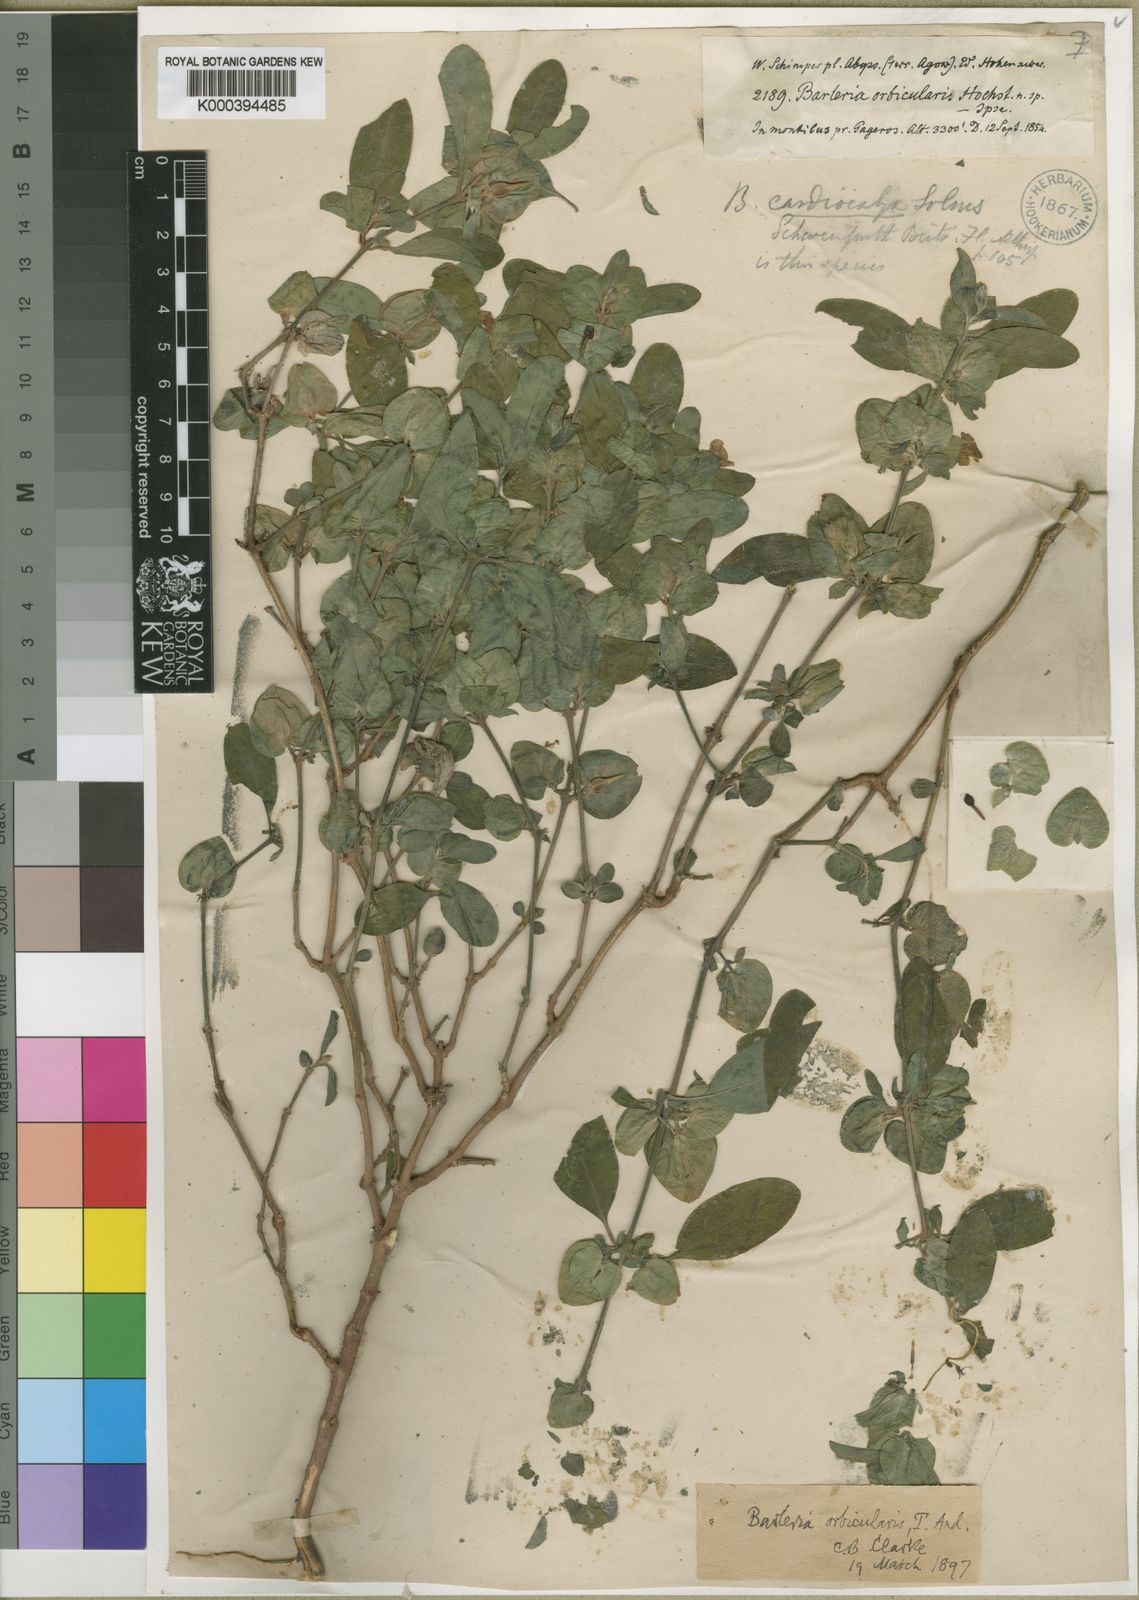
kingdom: Plantae
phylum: Tracheophyta
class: Magnoliopsida
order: Lamiales
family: Acanthaceae
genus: Barleria
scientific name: Barleria orbicularis
